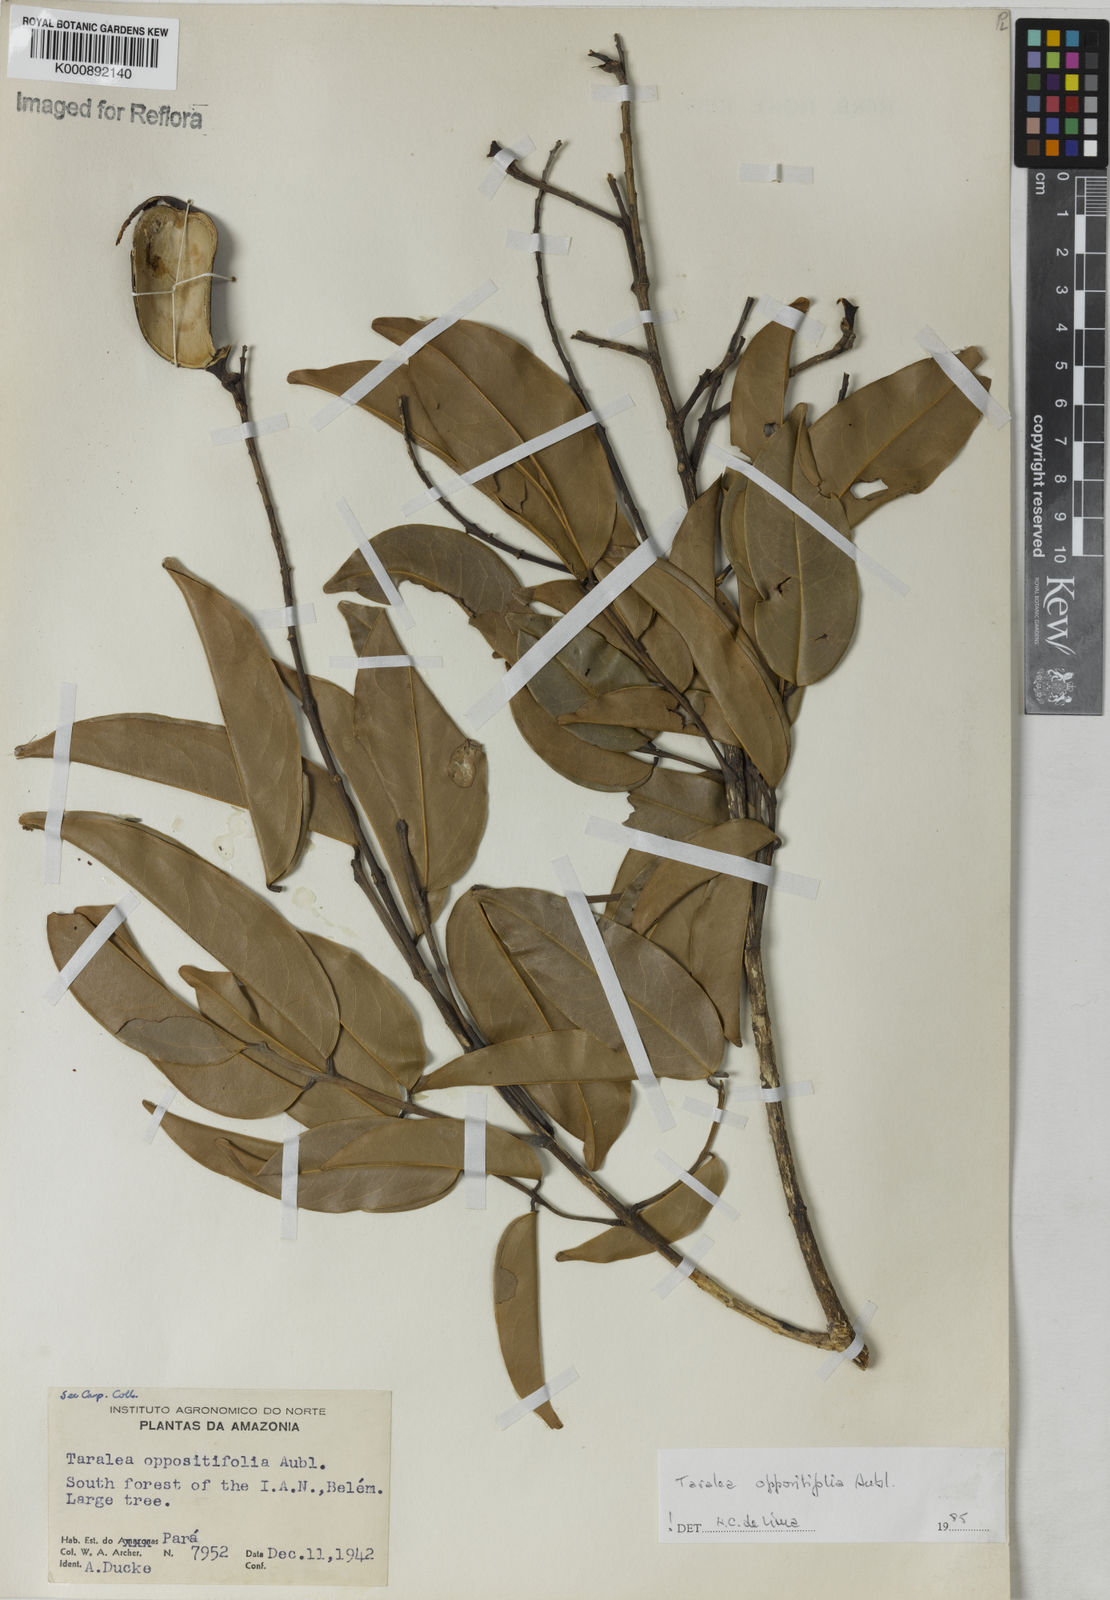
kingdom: Plantae
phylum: Tracheophyta
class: Magnoliopsida
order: Fabales
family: Fabaceae
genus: Taralea
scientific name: Taralea oppositifolia
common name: Tonka
